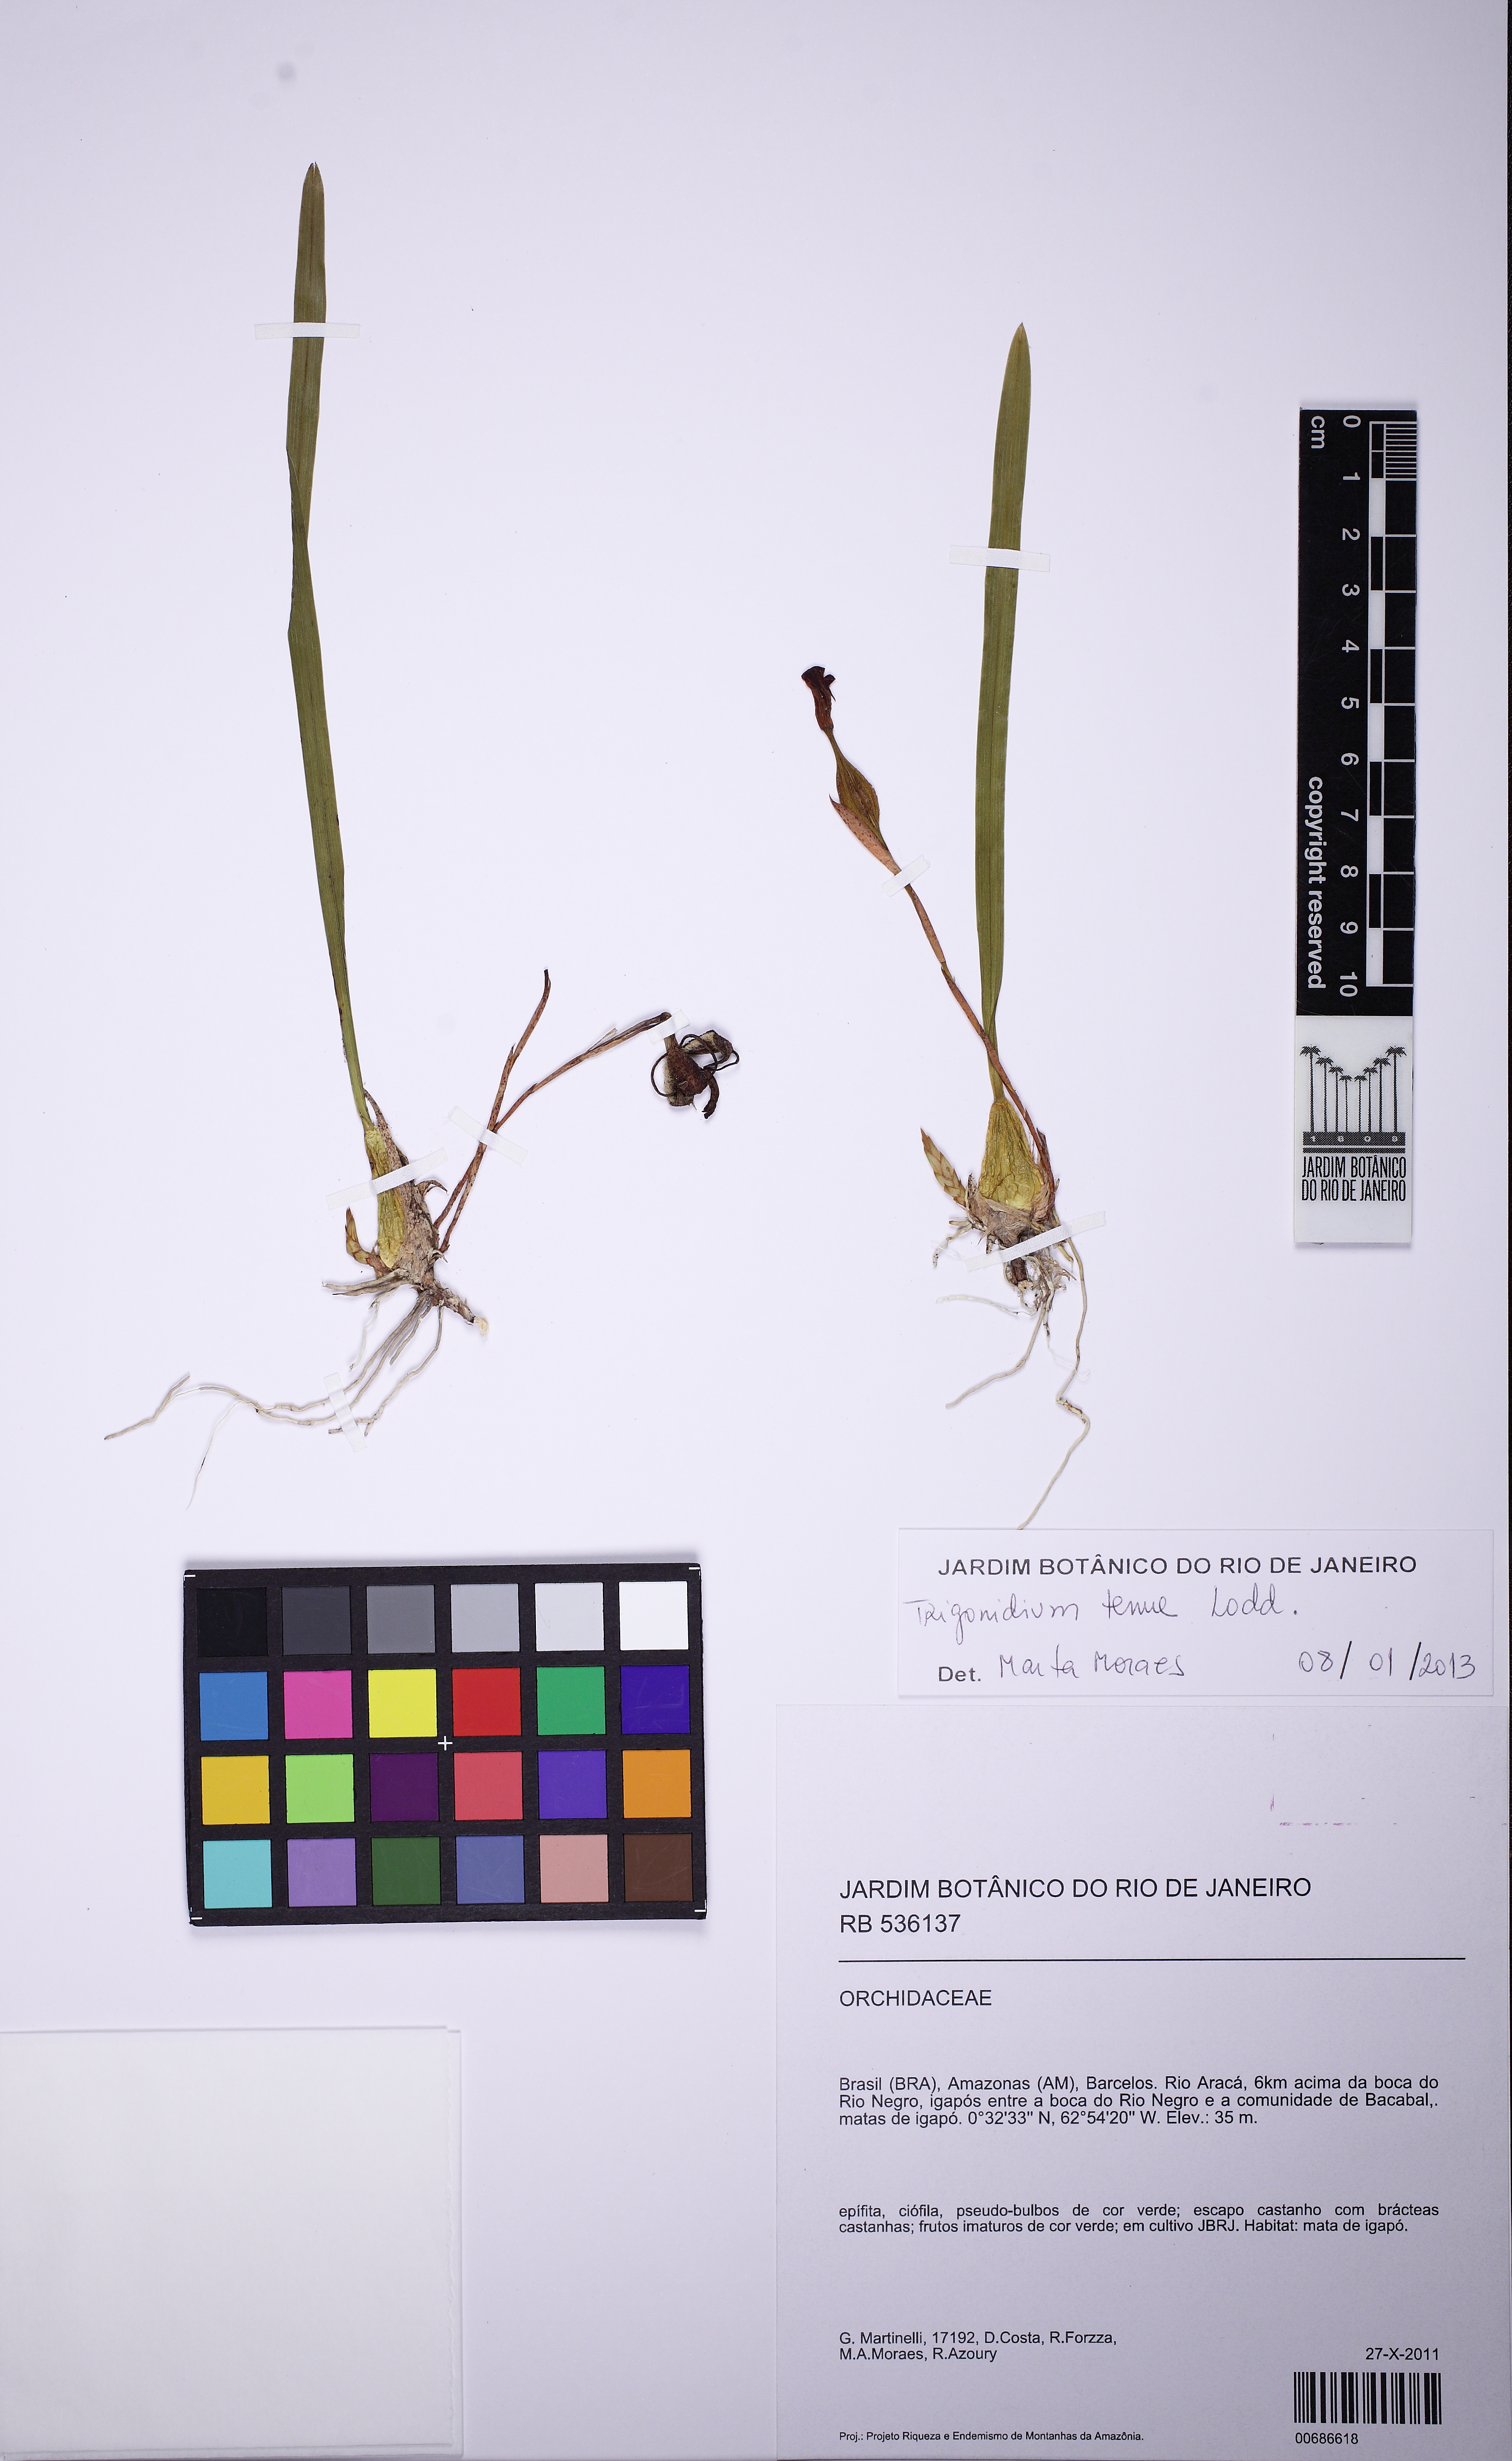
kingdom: Plantae
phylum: Tracheophyta
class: Liliopsida
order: Asparagales
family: Orchidaceae
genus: Maxillaria
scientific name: Maxillaria subrepens
